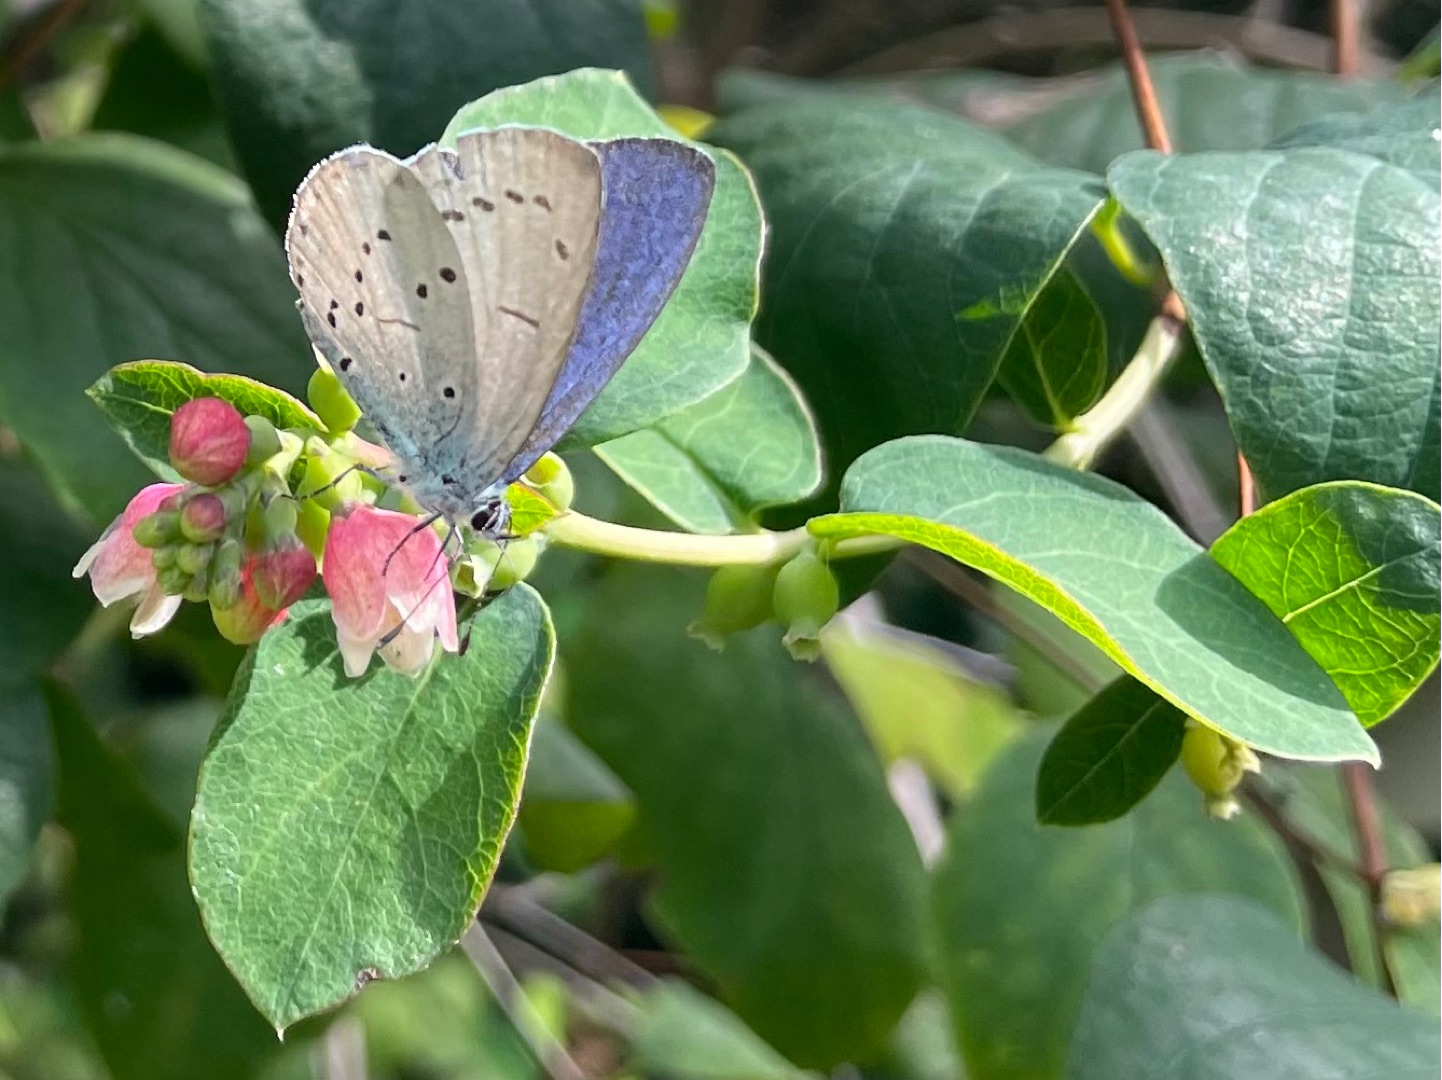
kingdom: Animalia
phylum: Arthropoda
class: Insecta
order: Lepidoptera
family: Lycaenidae
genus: Celastrina
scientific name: Celastrina argiolus
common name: Skovblåfugl
